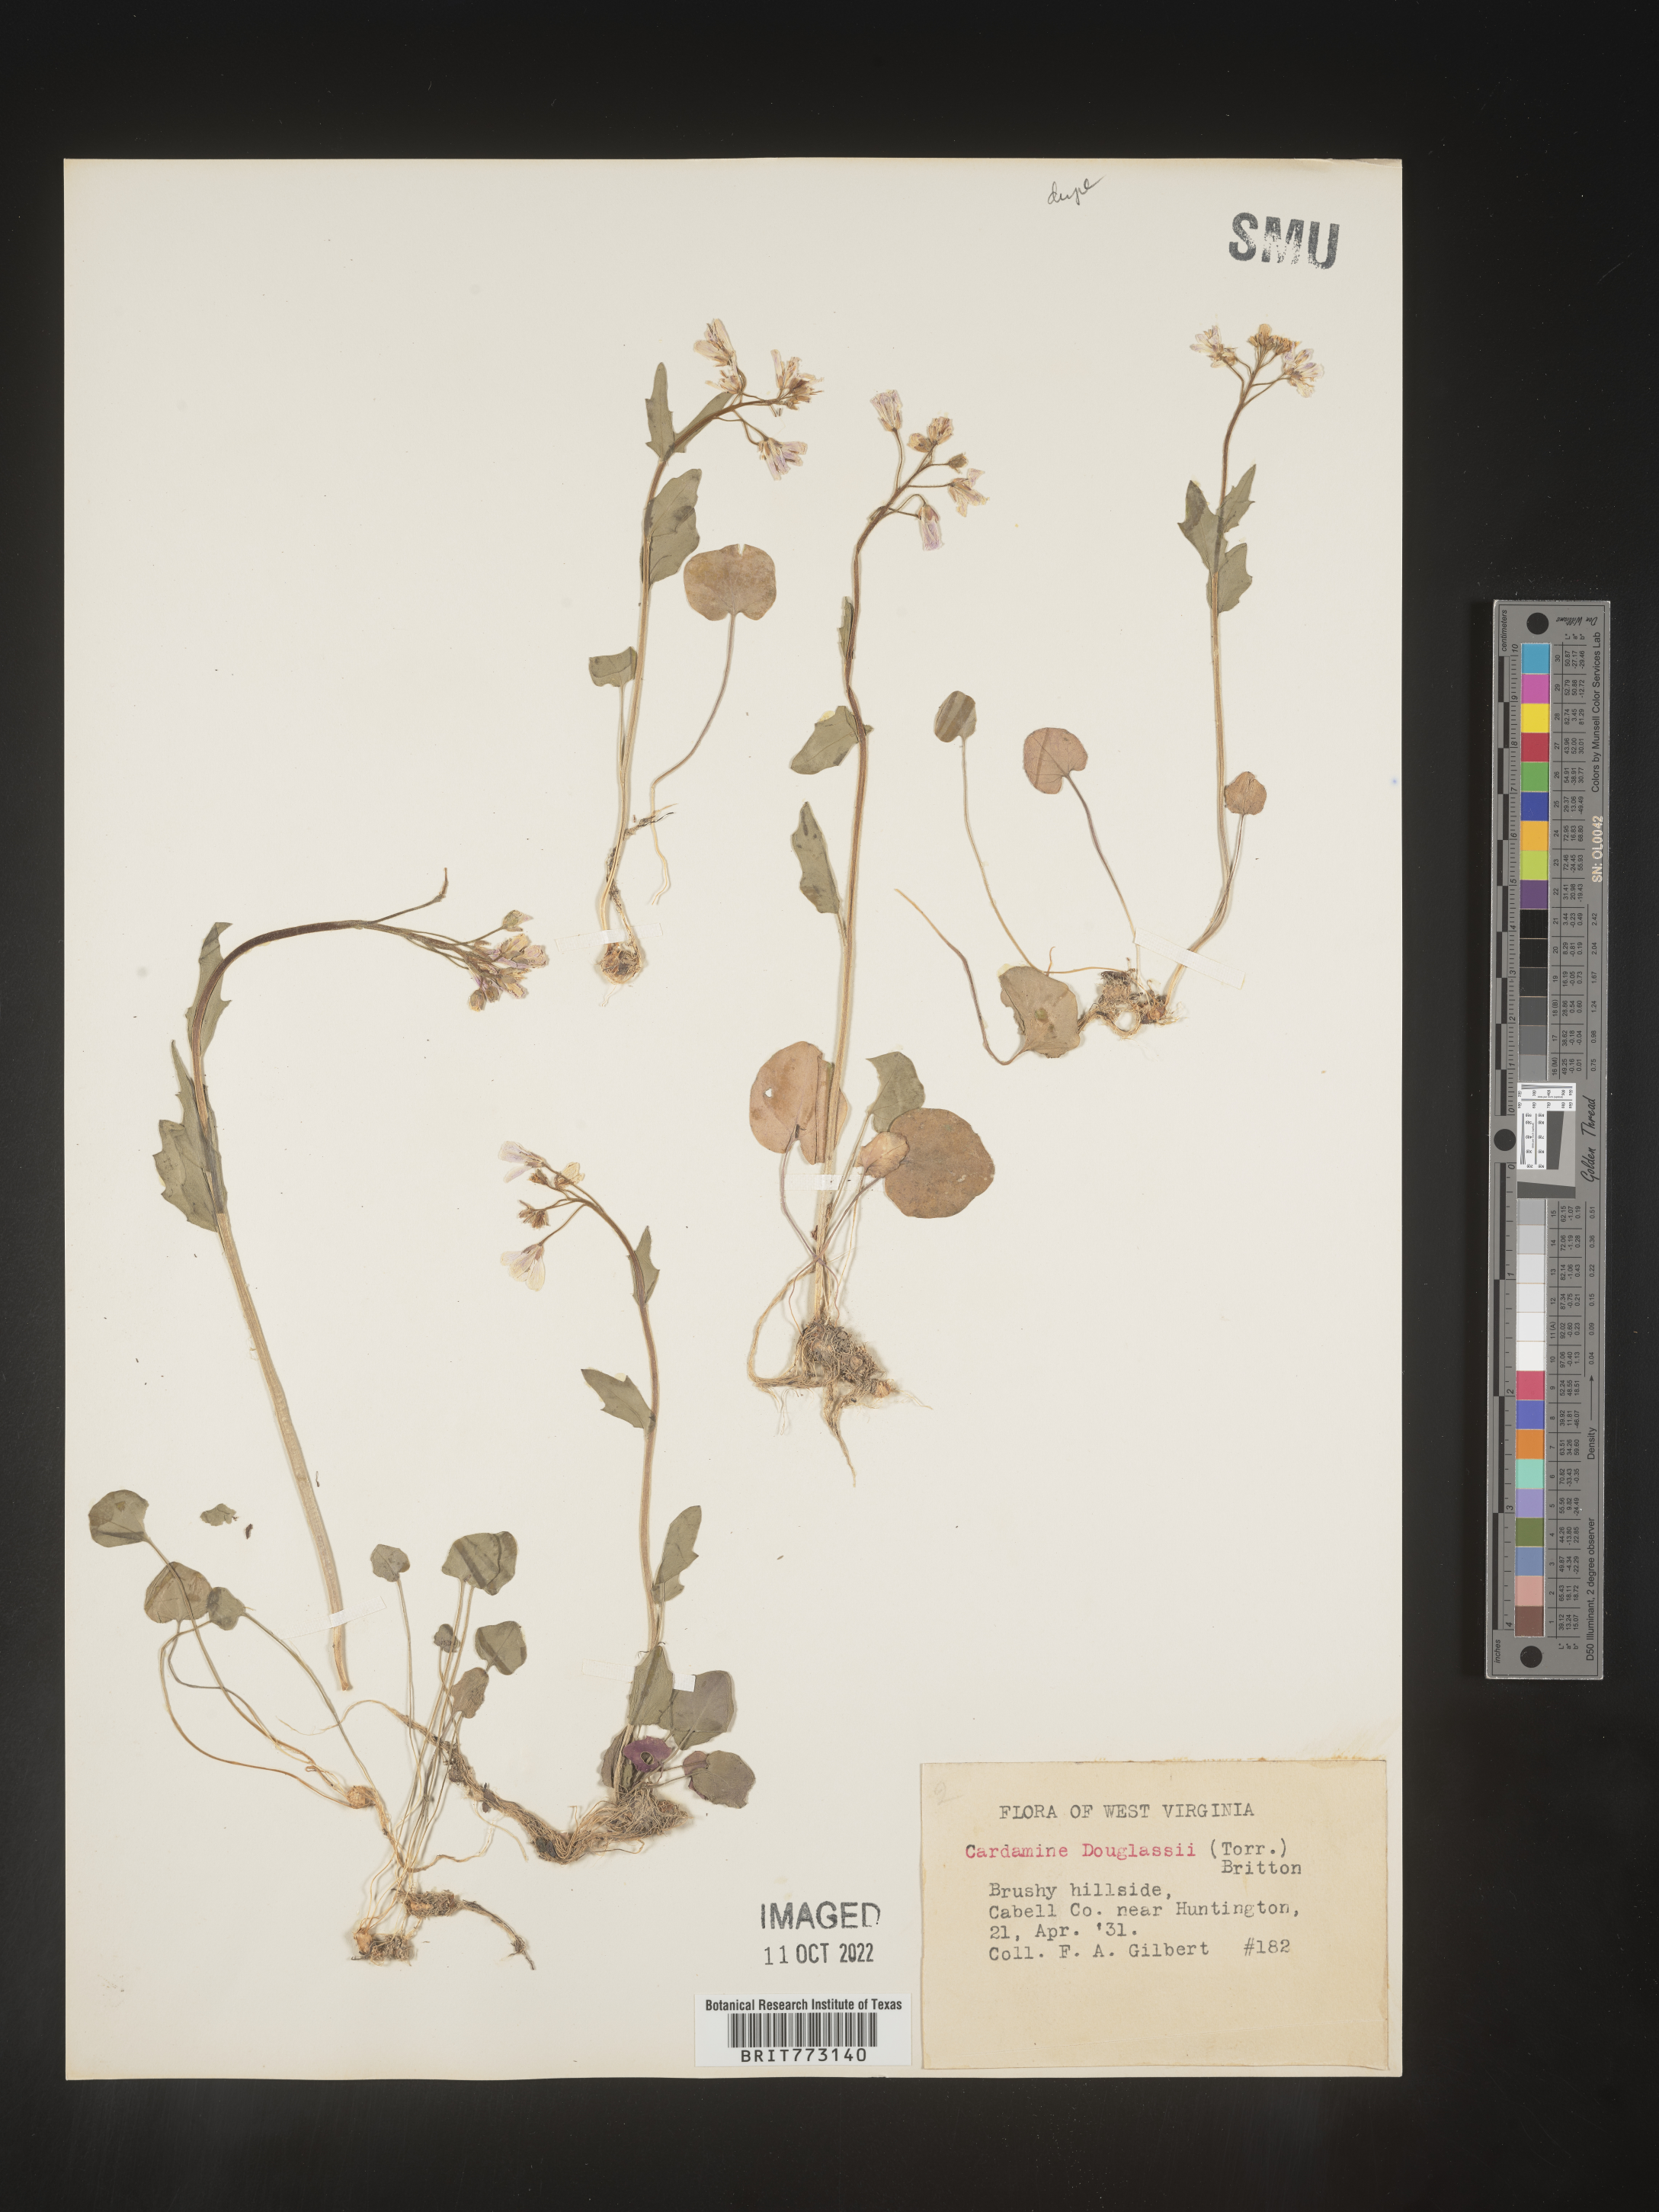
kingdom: Plantae
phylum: Tracheophyta
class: Magnoliopsida
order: Brassicales
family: Brassicaceae
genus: Cardamine
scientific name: Cardamine
